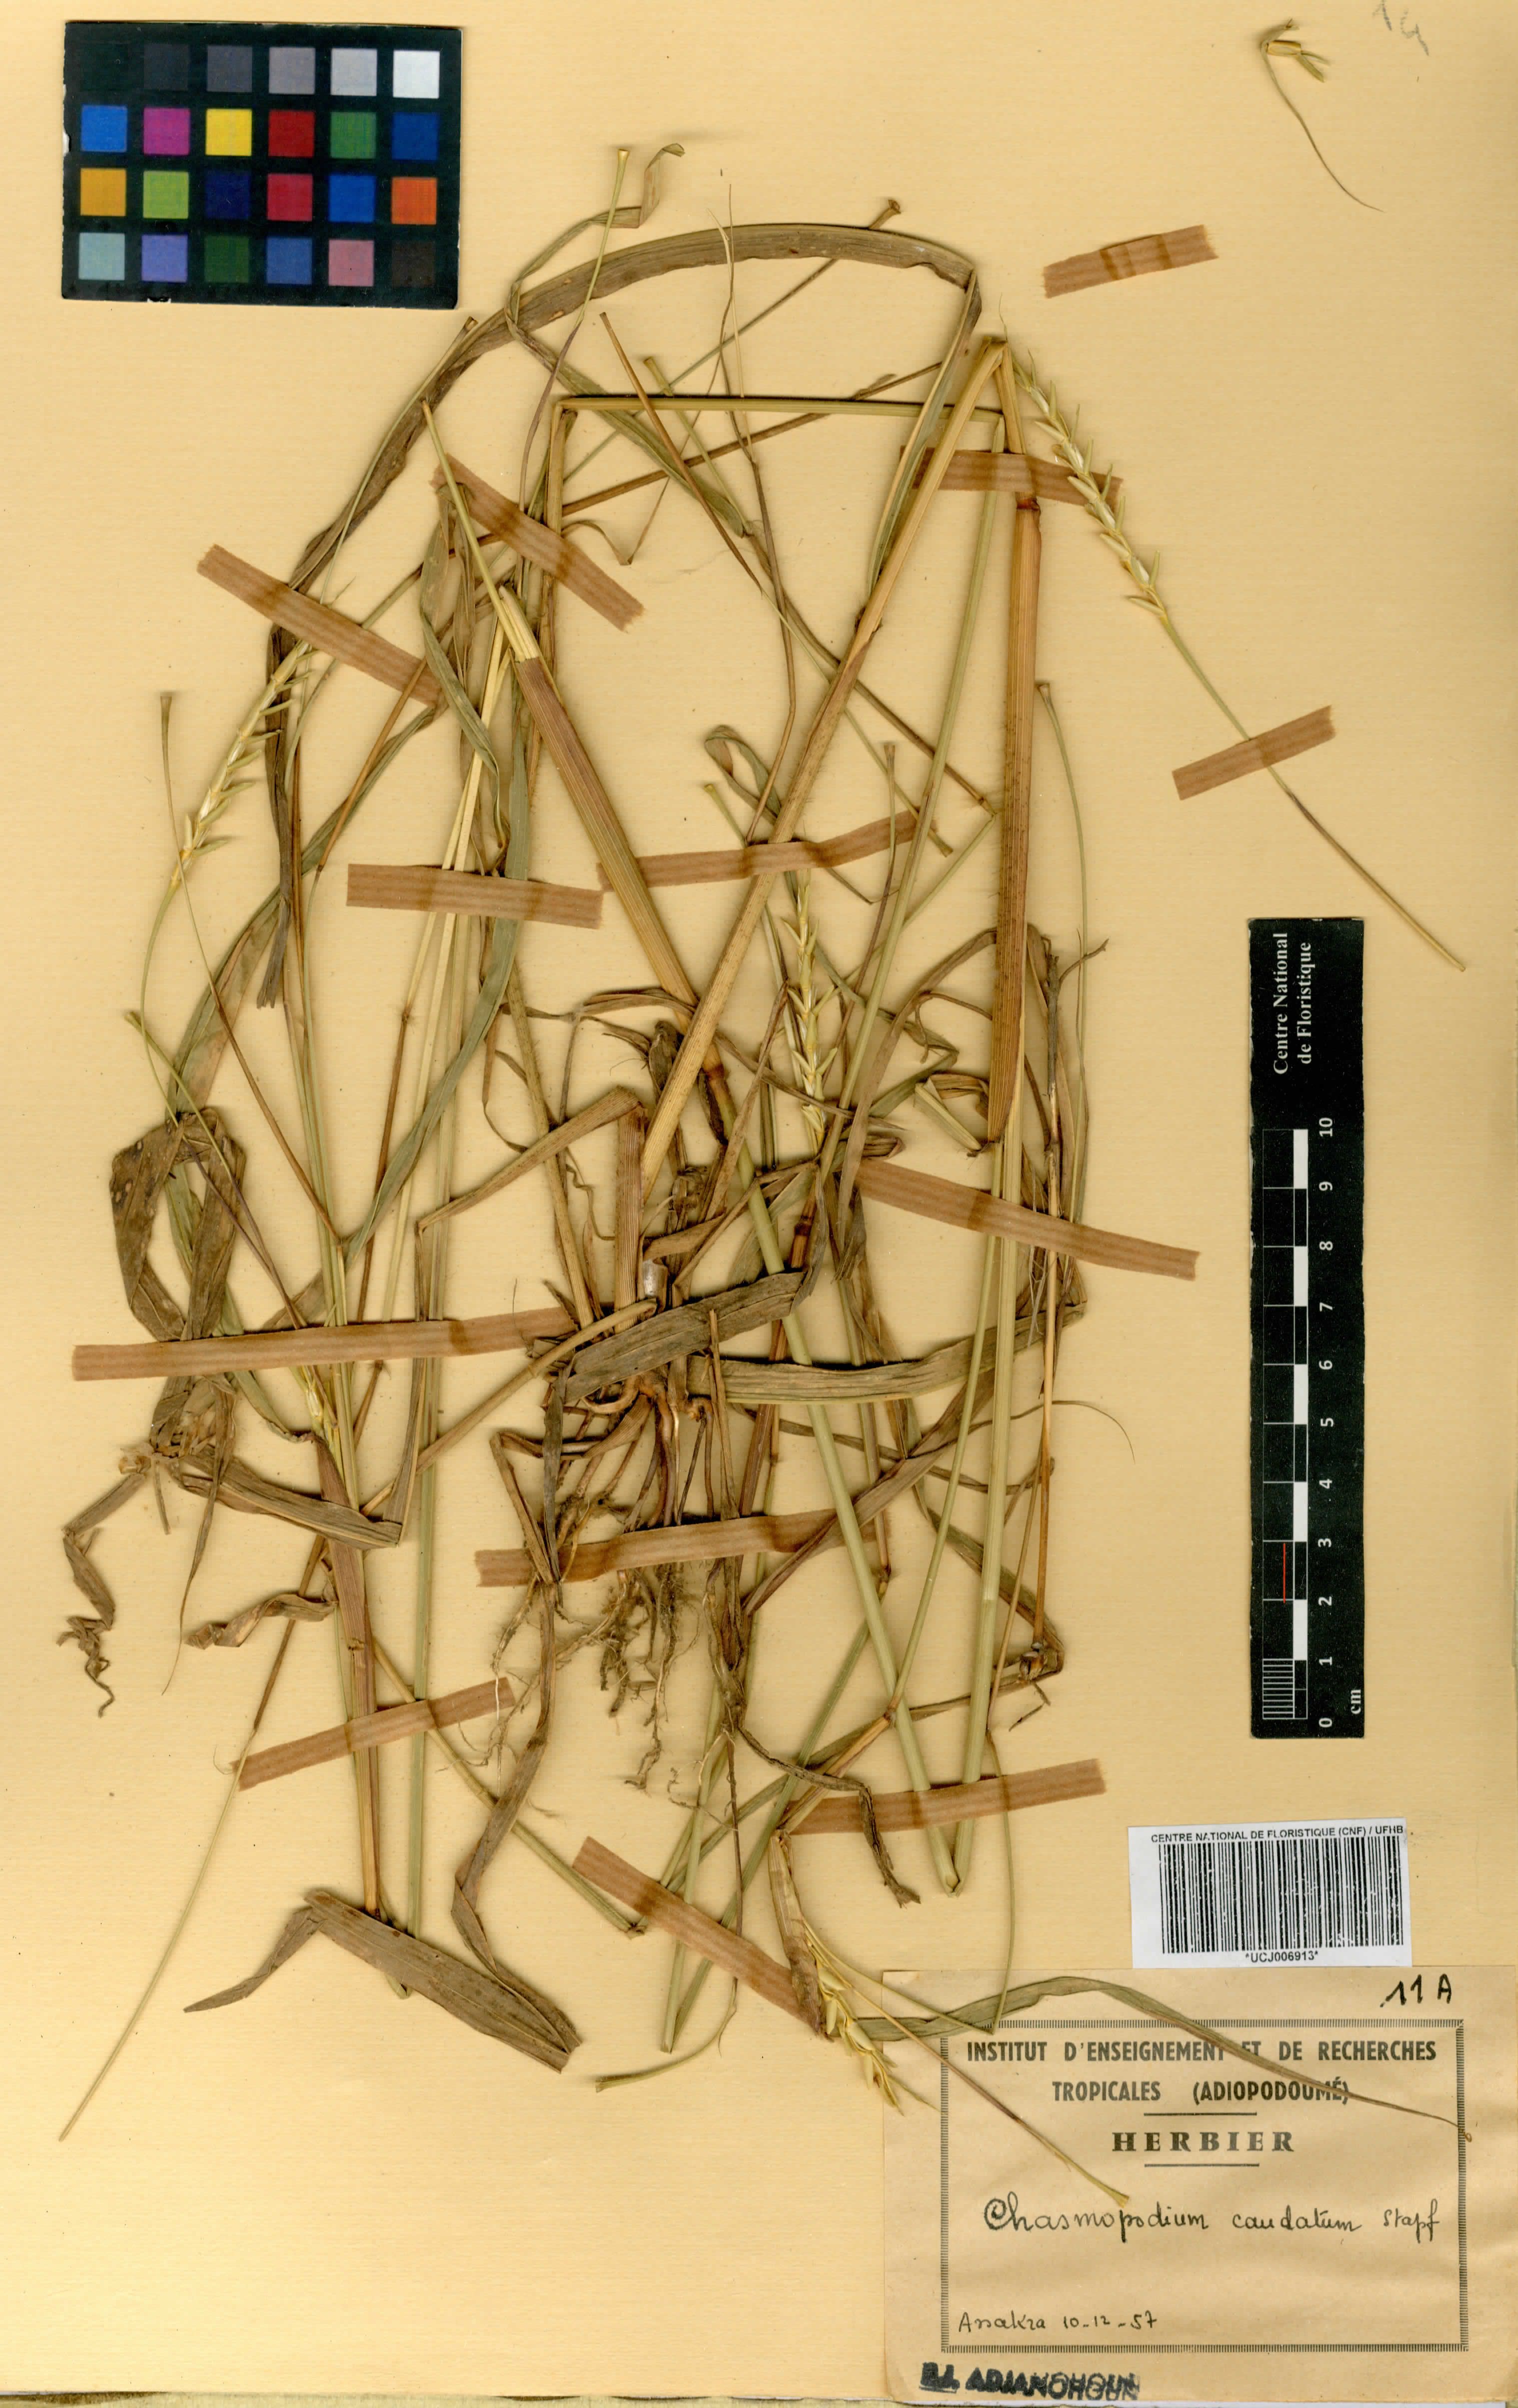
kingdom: Plantae
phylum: Tracheophyta
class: Liliopsida
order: Poales
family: Poaceae
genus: Chasmopodium
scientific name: Chasmopodium caudatum
